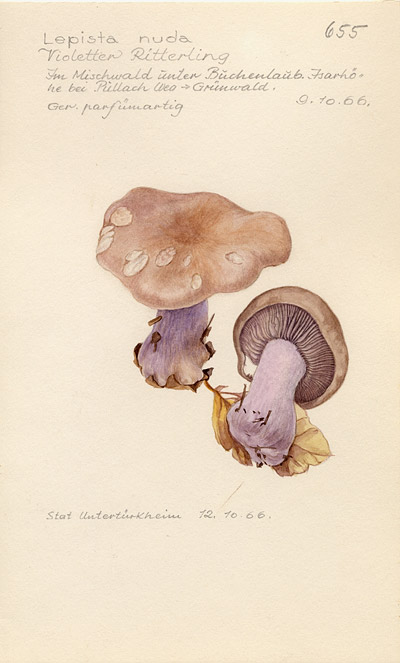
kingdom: Fungi
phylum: Basidiomycota
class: Agaricomycetes
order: Agaricales
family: Tricholomataceae
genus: Lepista
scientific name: Lepista nuda
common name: Wood blewit
